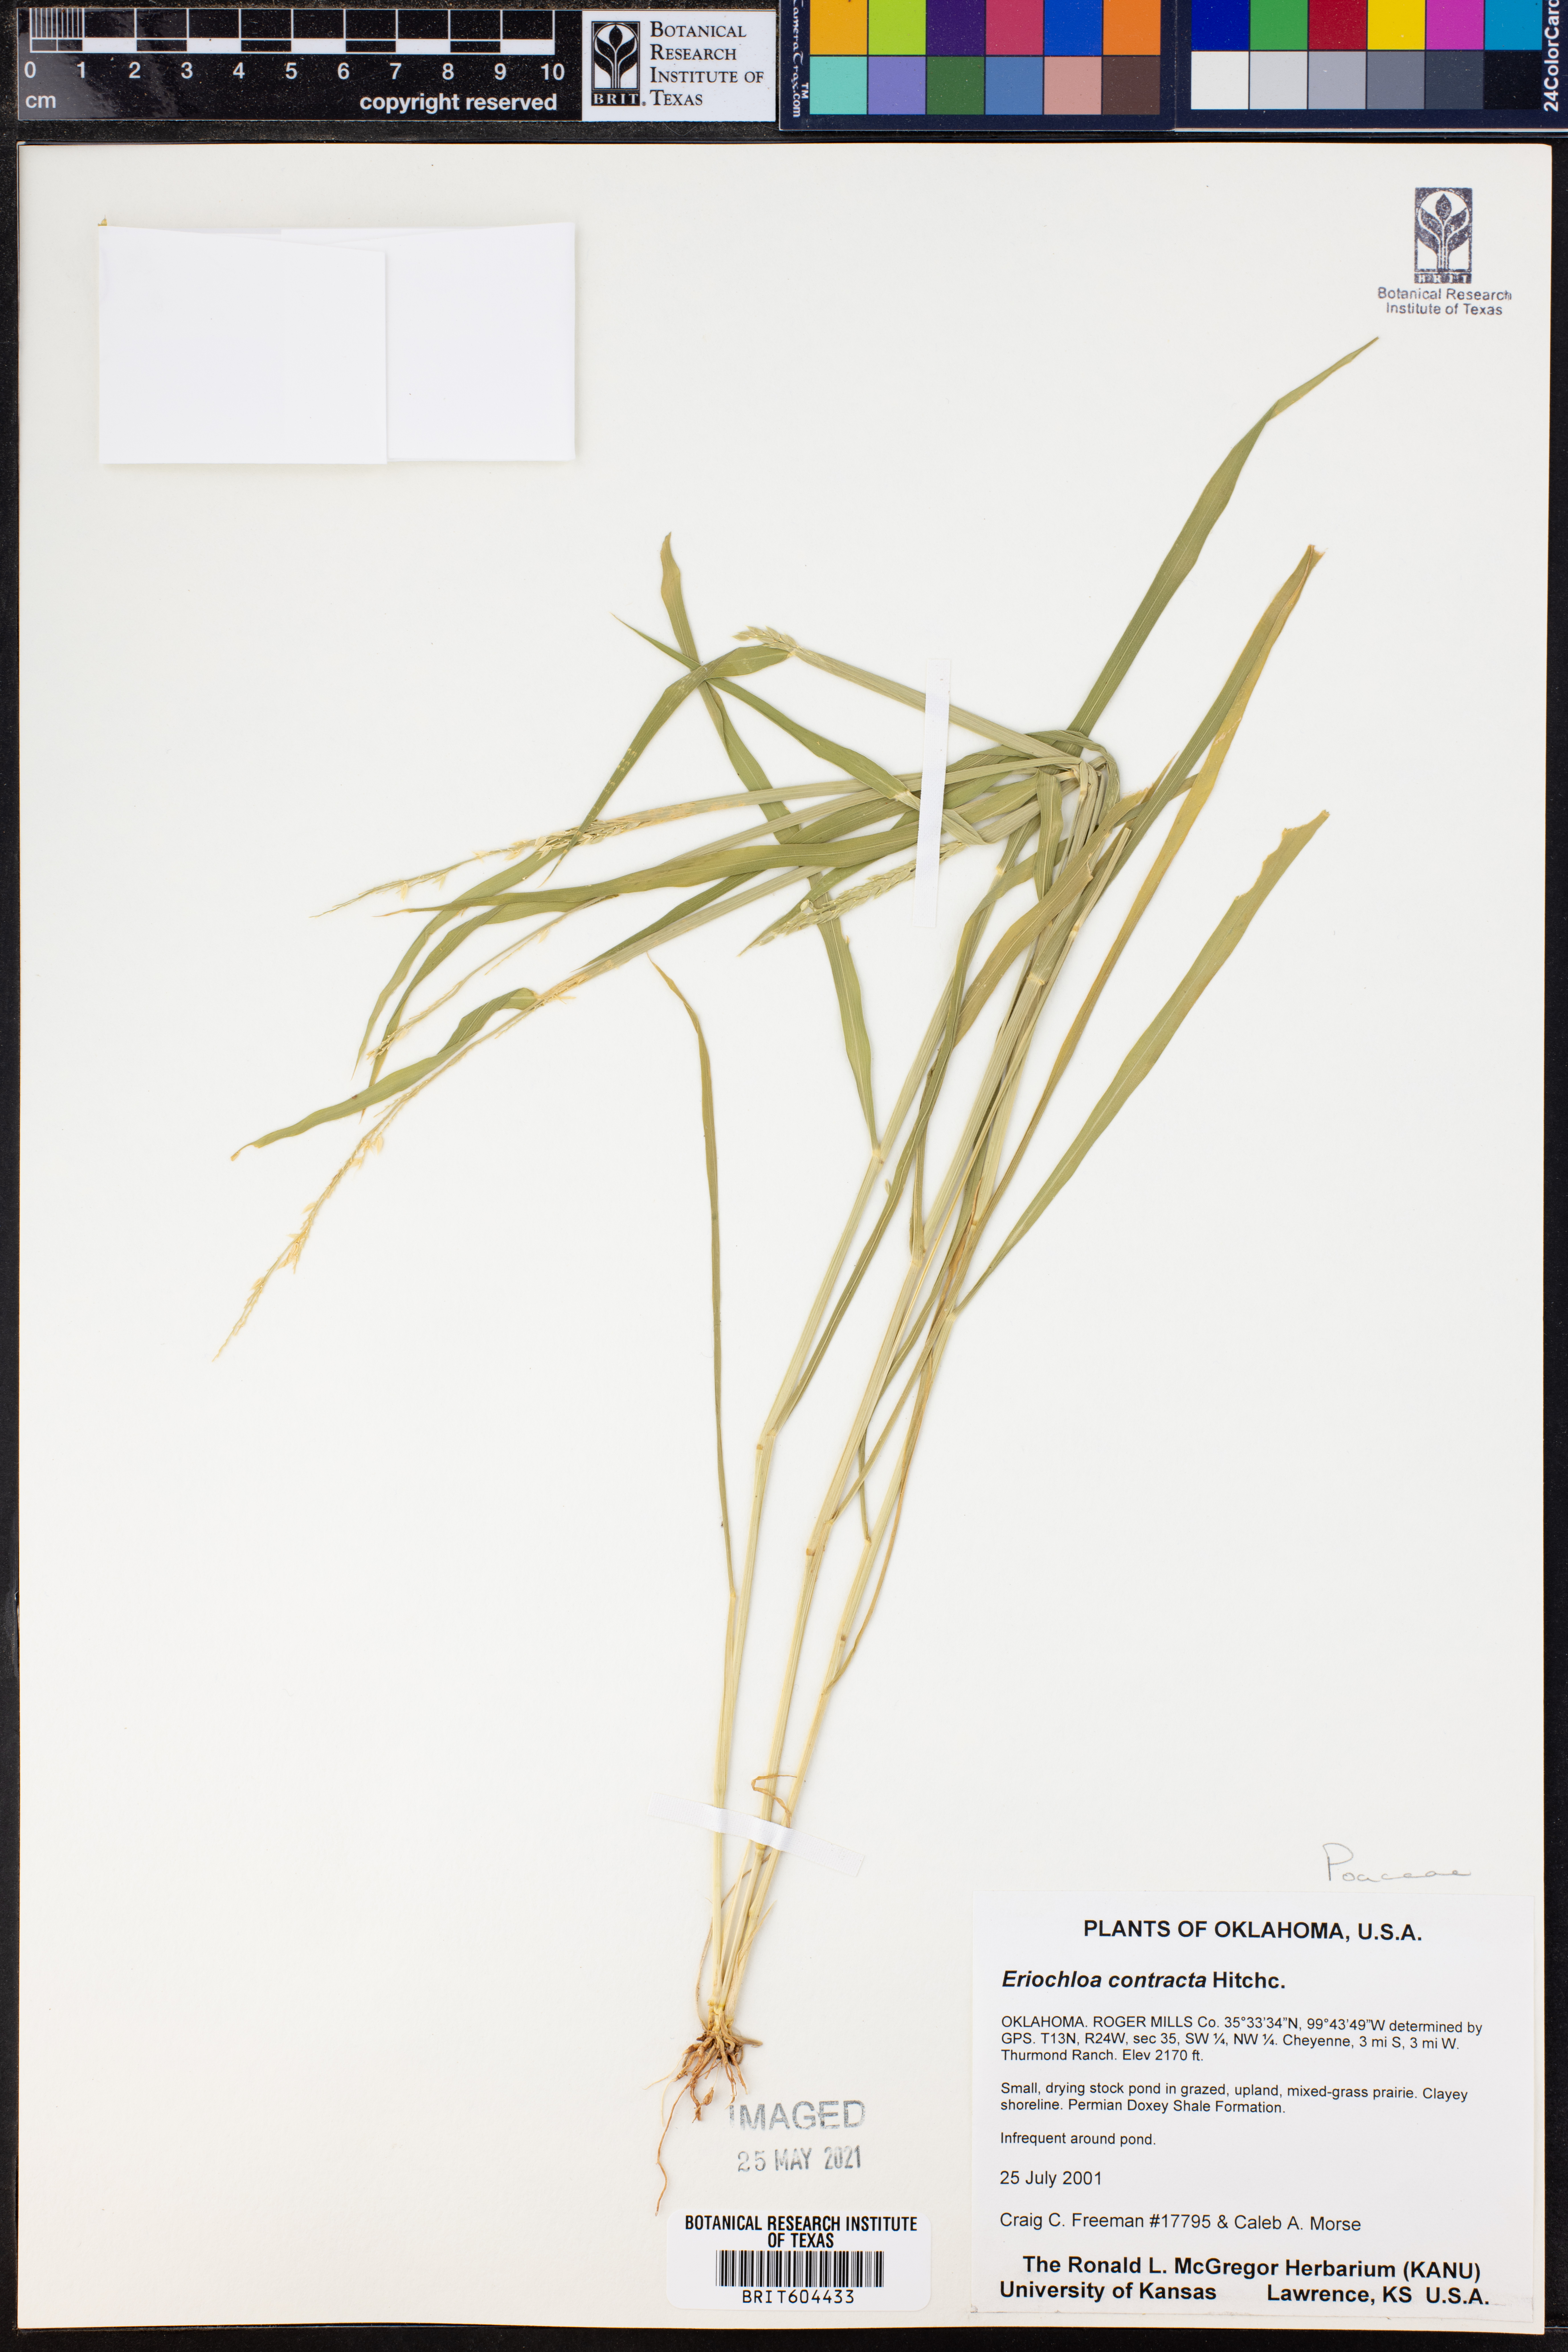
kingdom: Plantae
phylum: Tracheophyta
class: Liliopsida
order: Poales
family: Poaceae
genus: Eriochloa
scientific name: Eriochloa contracta
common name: Prairie cup grass
